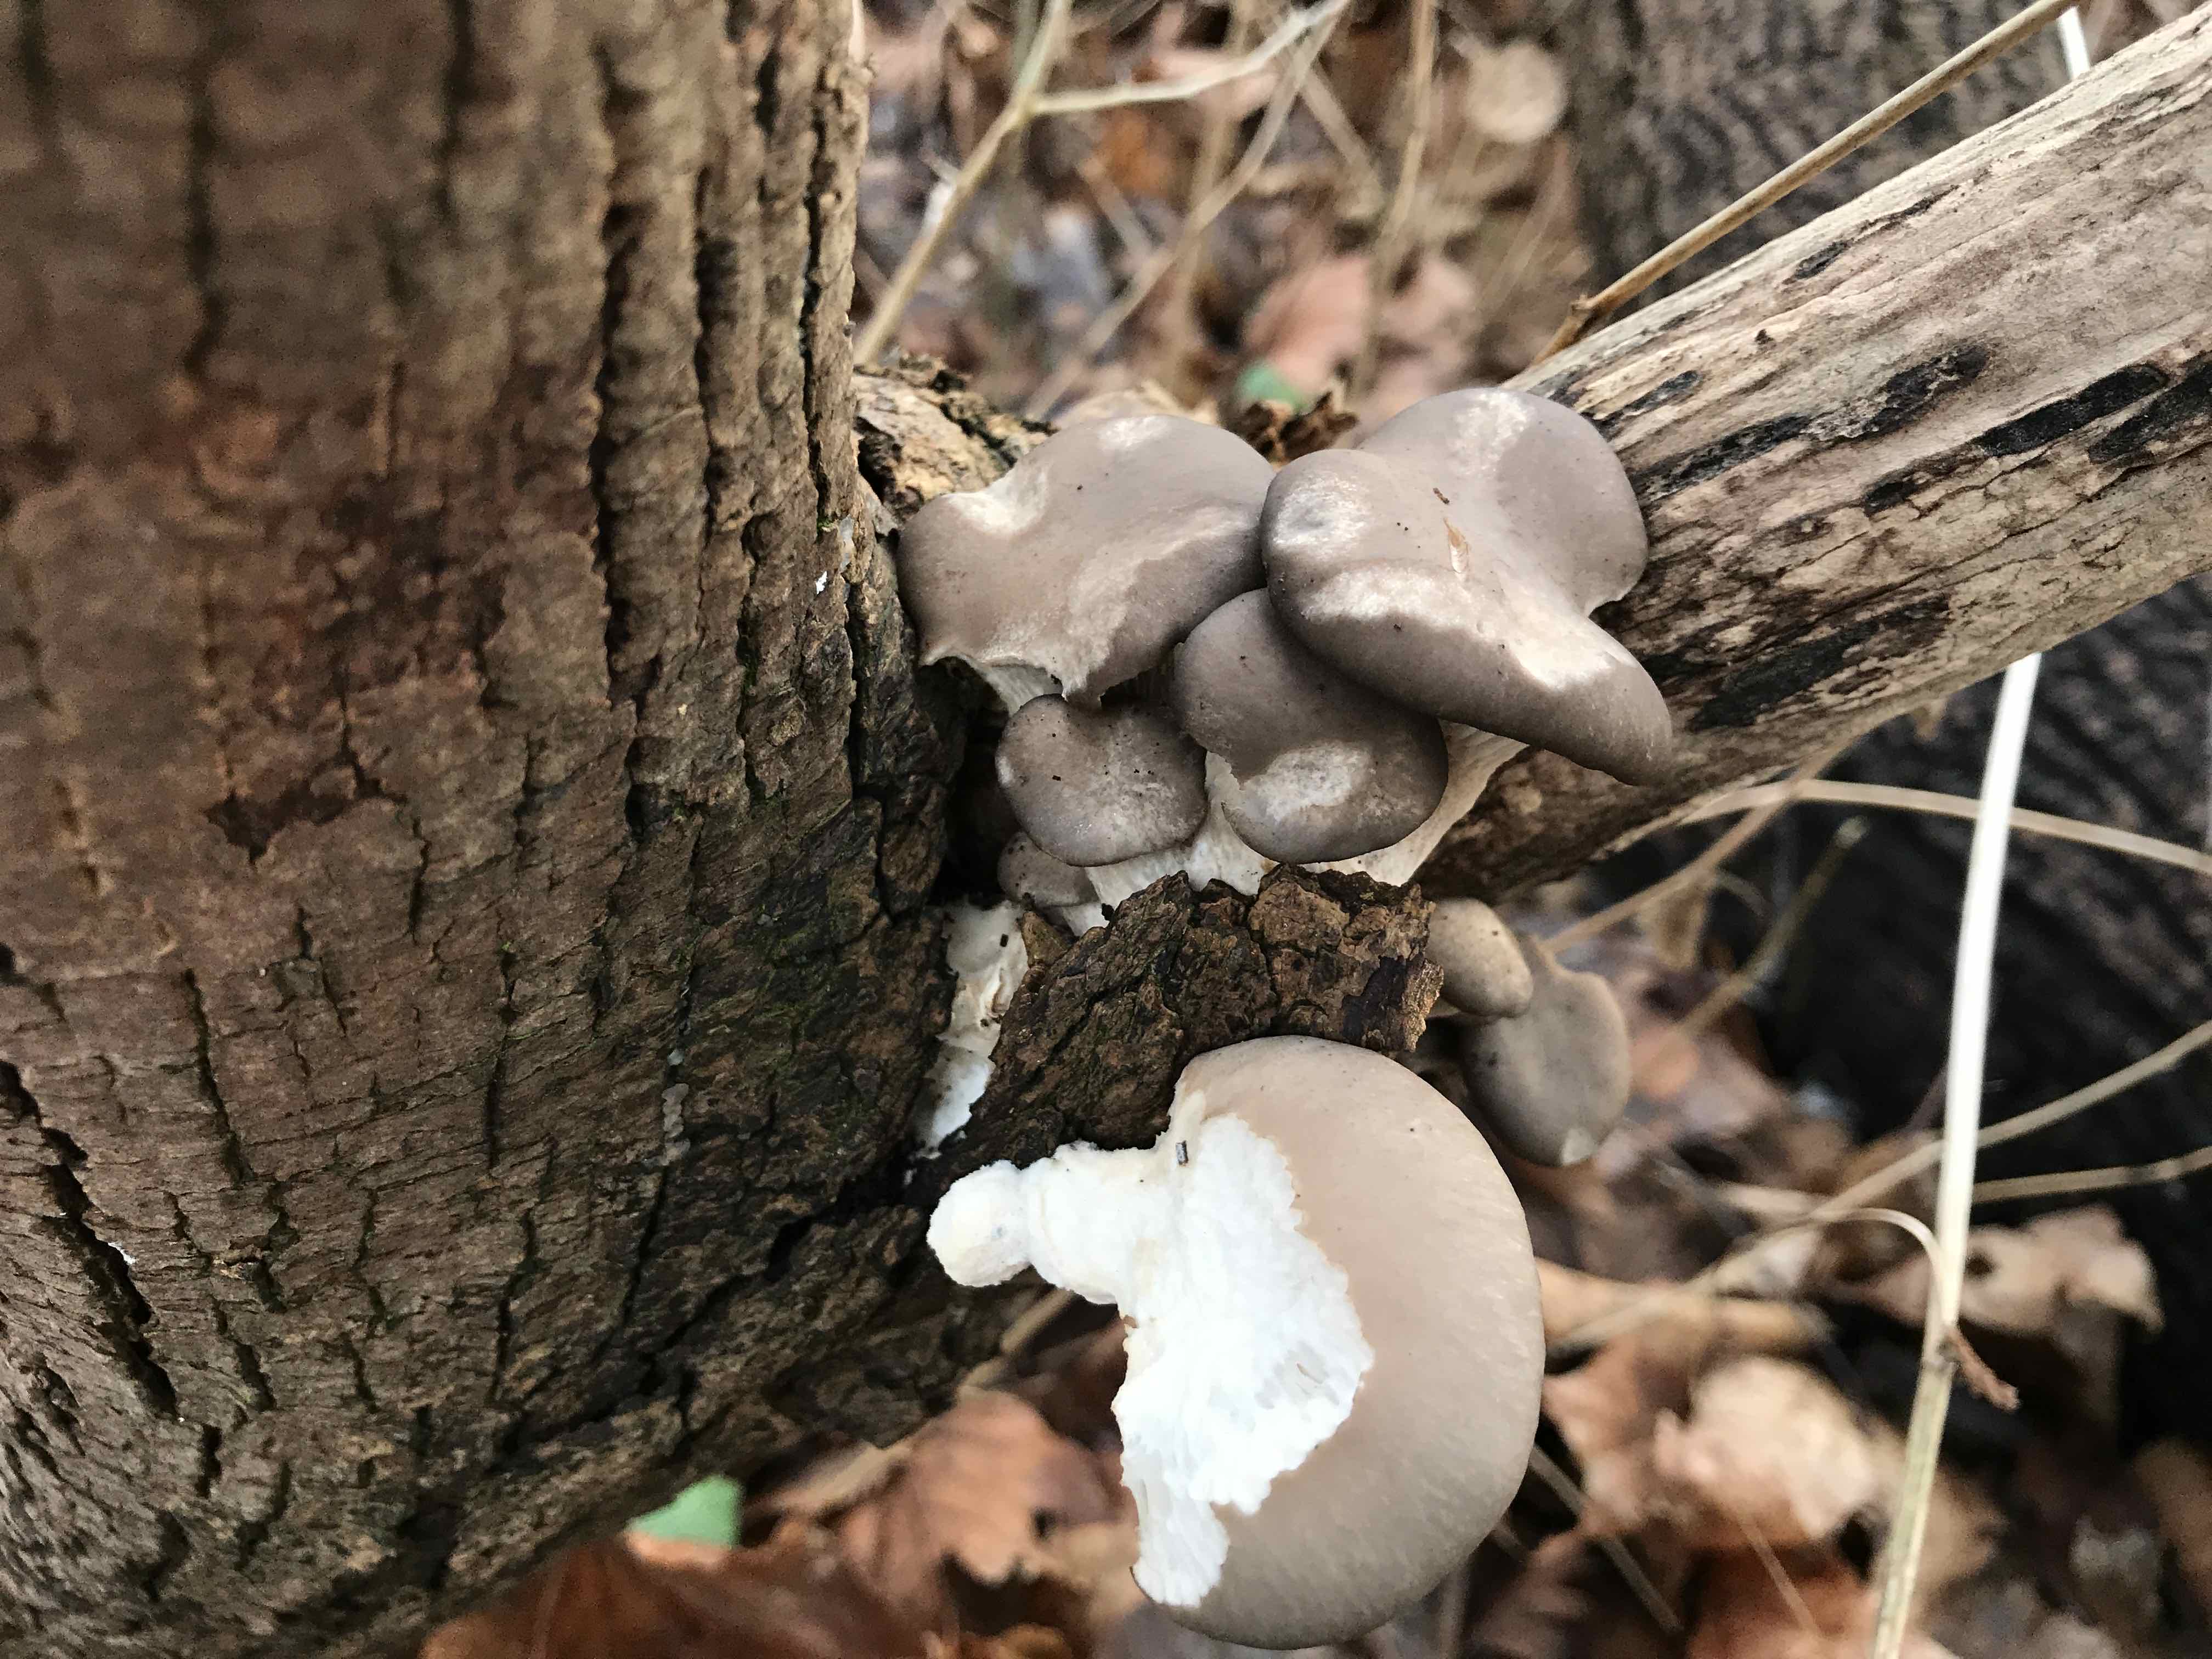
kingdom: Fungi
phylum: Basidiomycota
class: Agaricomycetes
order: Agaricales
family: Pleurotaceae
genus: Pleurotus
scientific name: Pleurotus ostreatus
